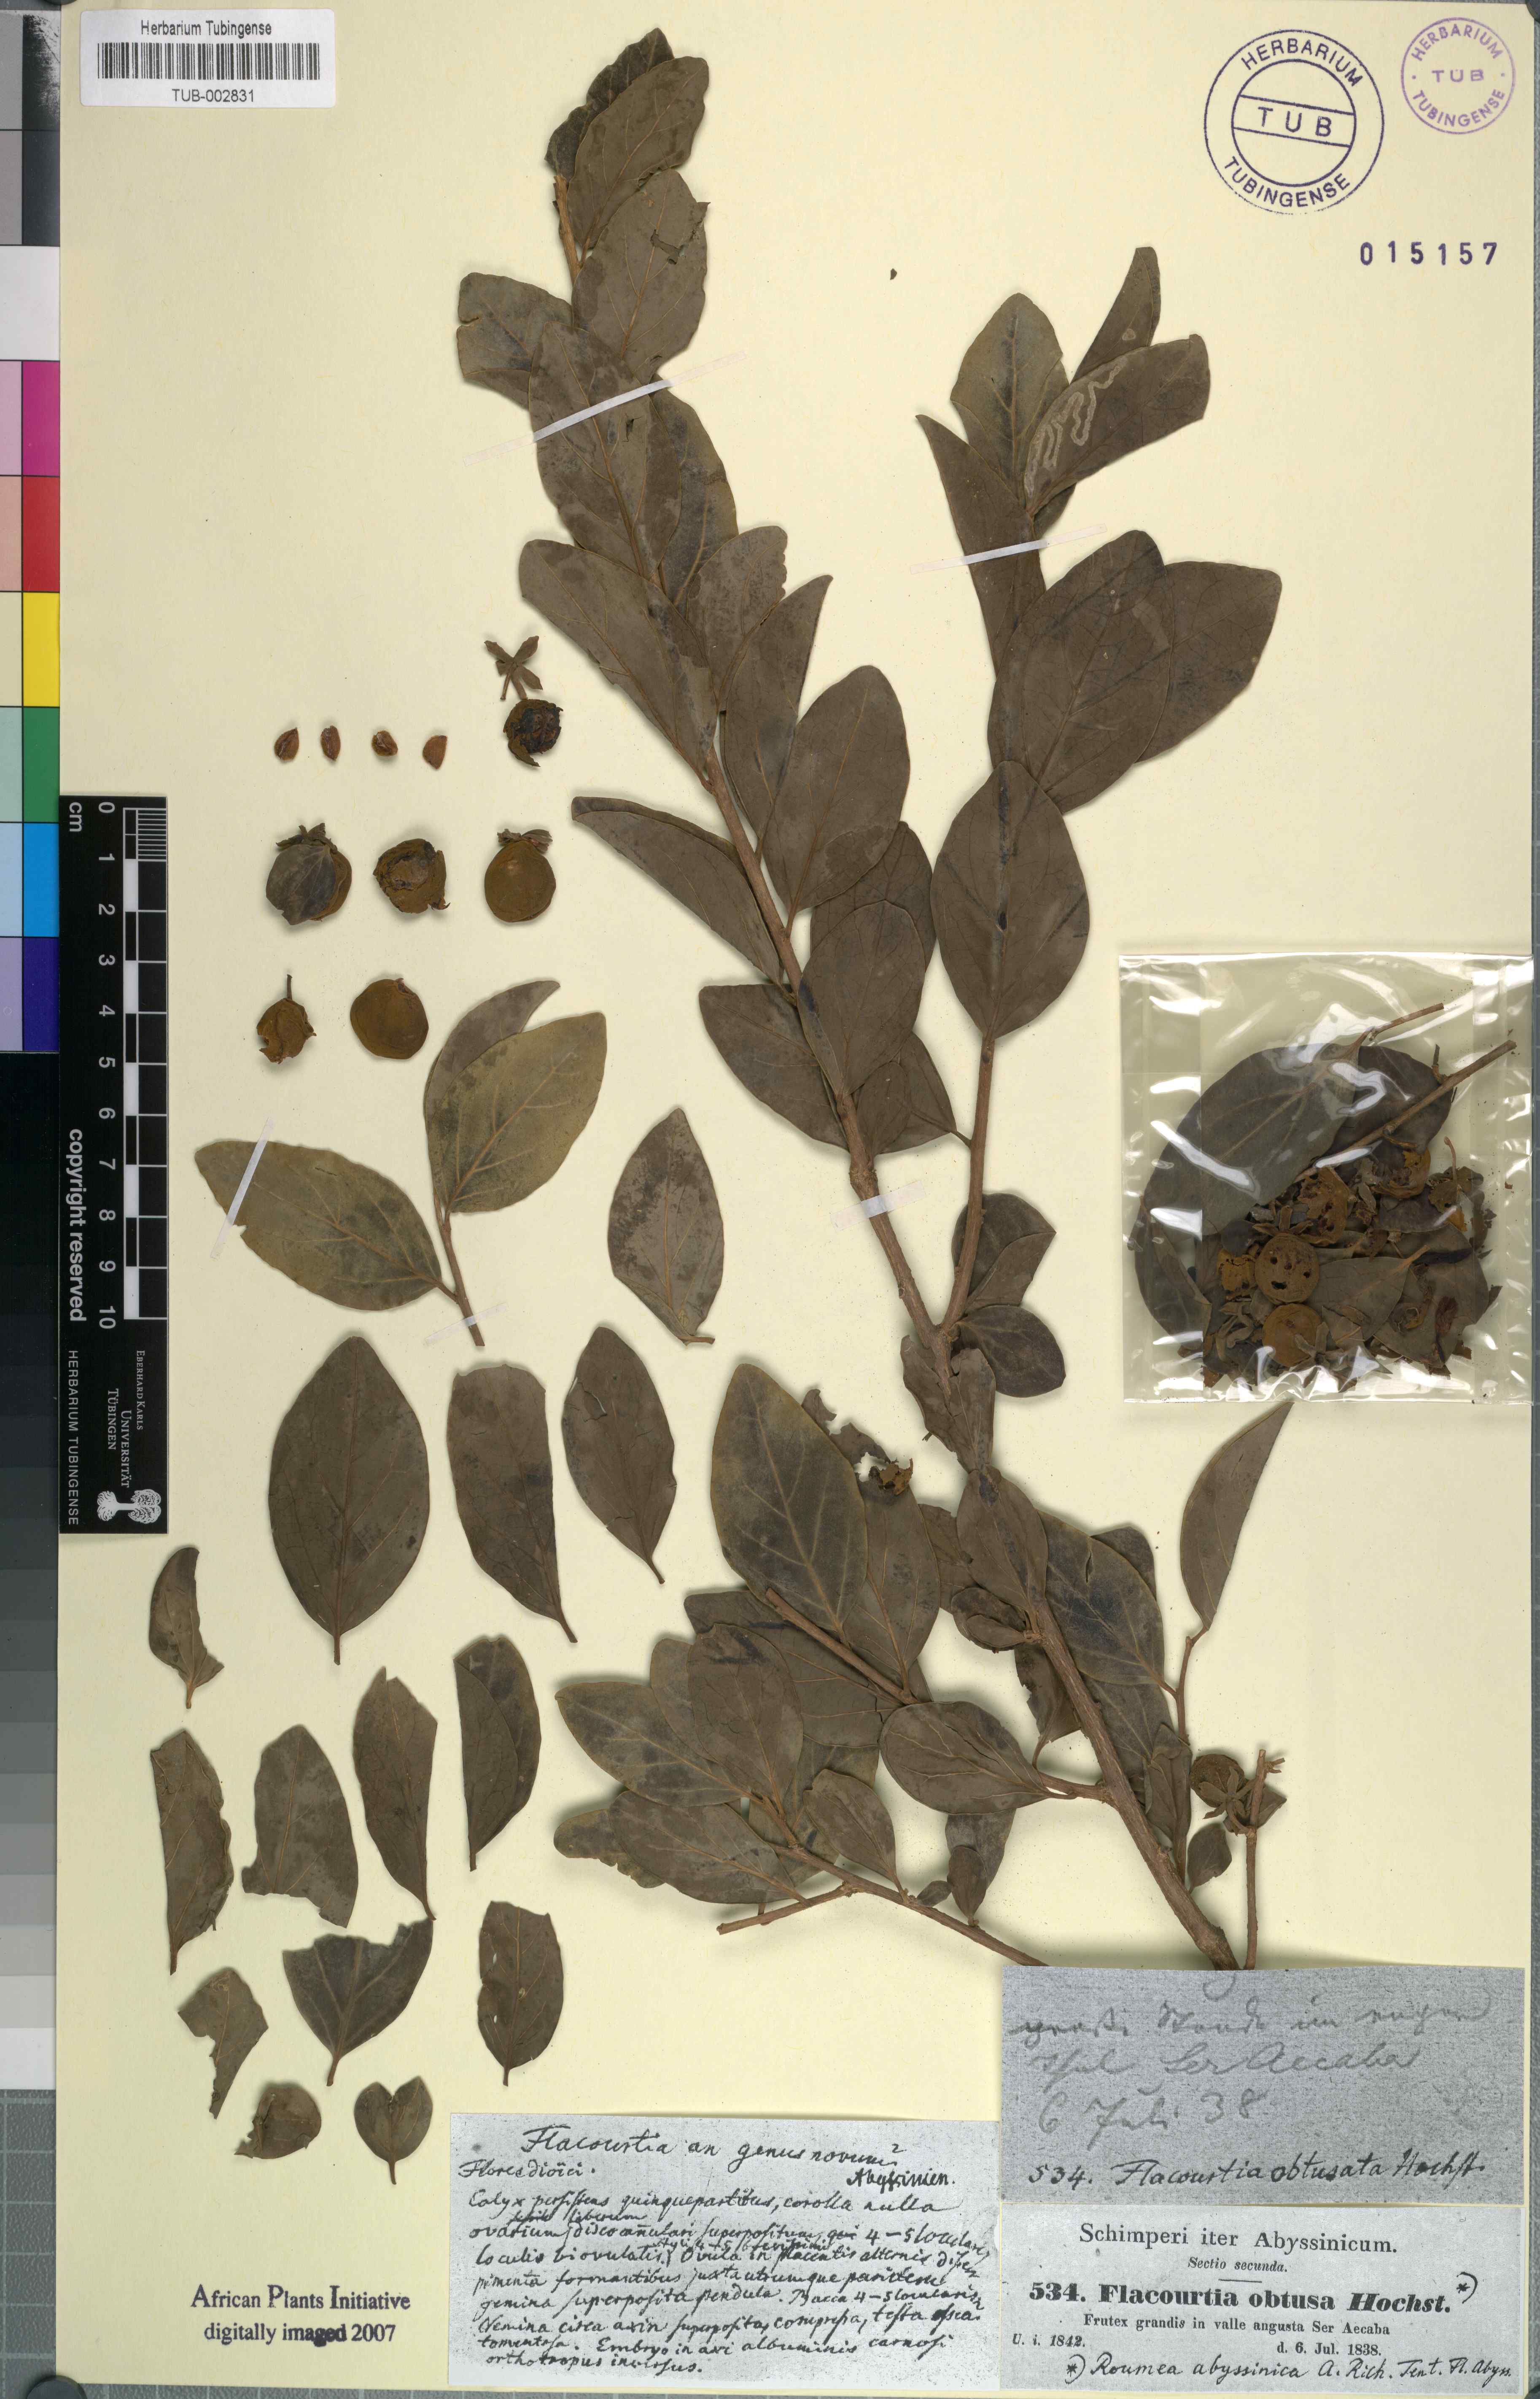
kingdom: Plantae
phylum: Tracheophyta
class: Magnoliopsida
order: Malpighiales
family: Salicaceae
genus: Dovyalis
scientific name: Dovyalis abyssinica
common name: Abyssinian-gooseberry
